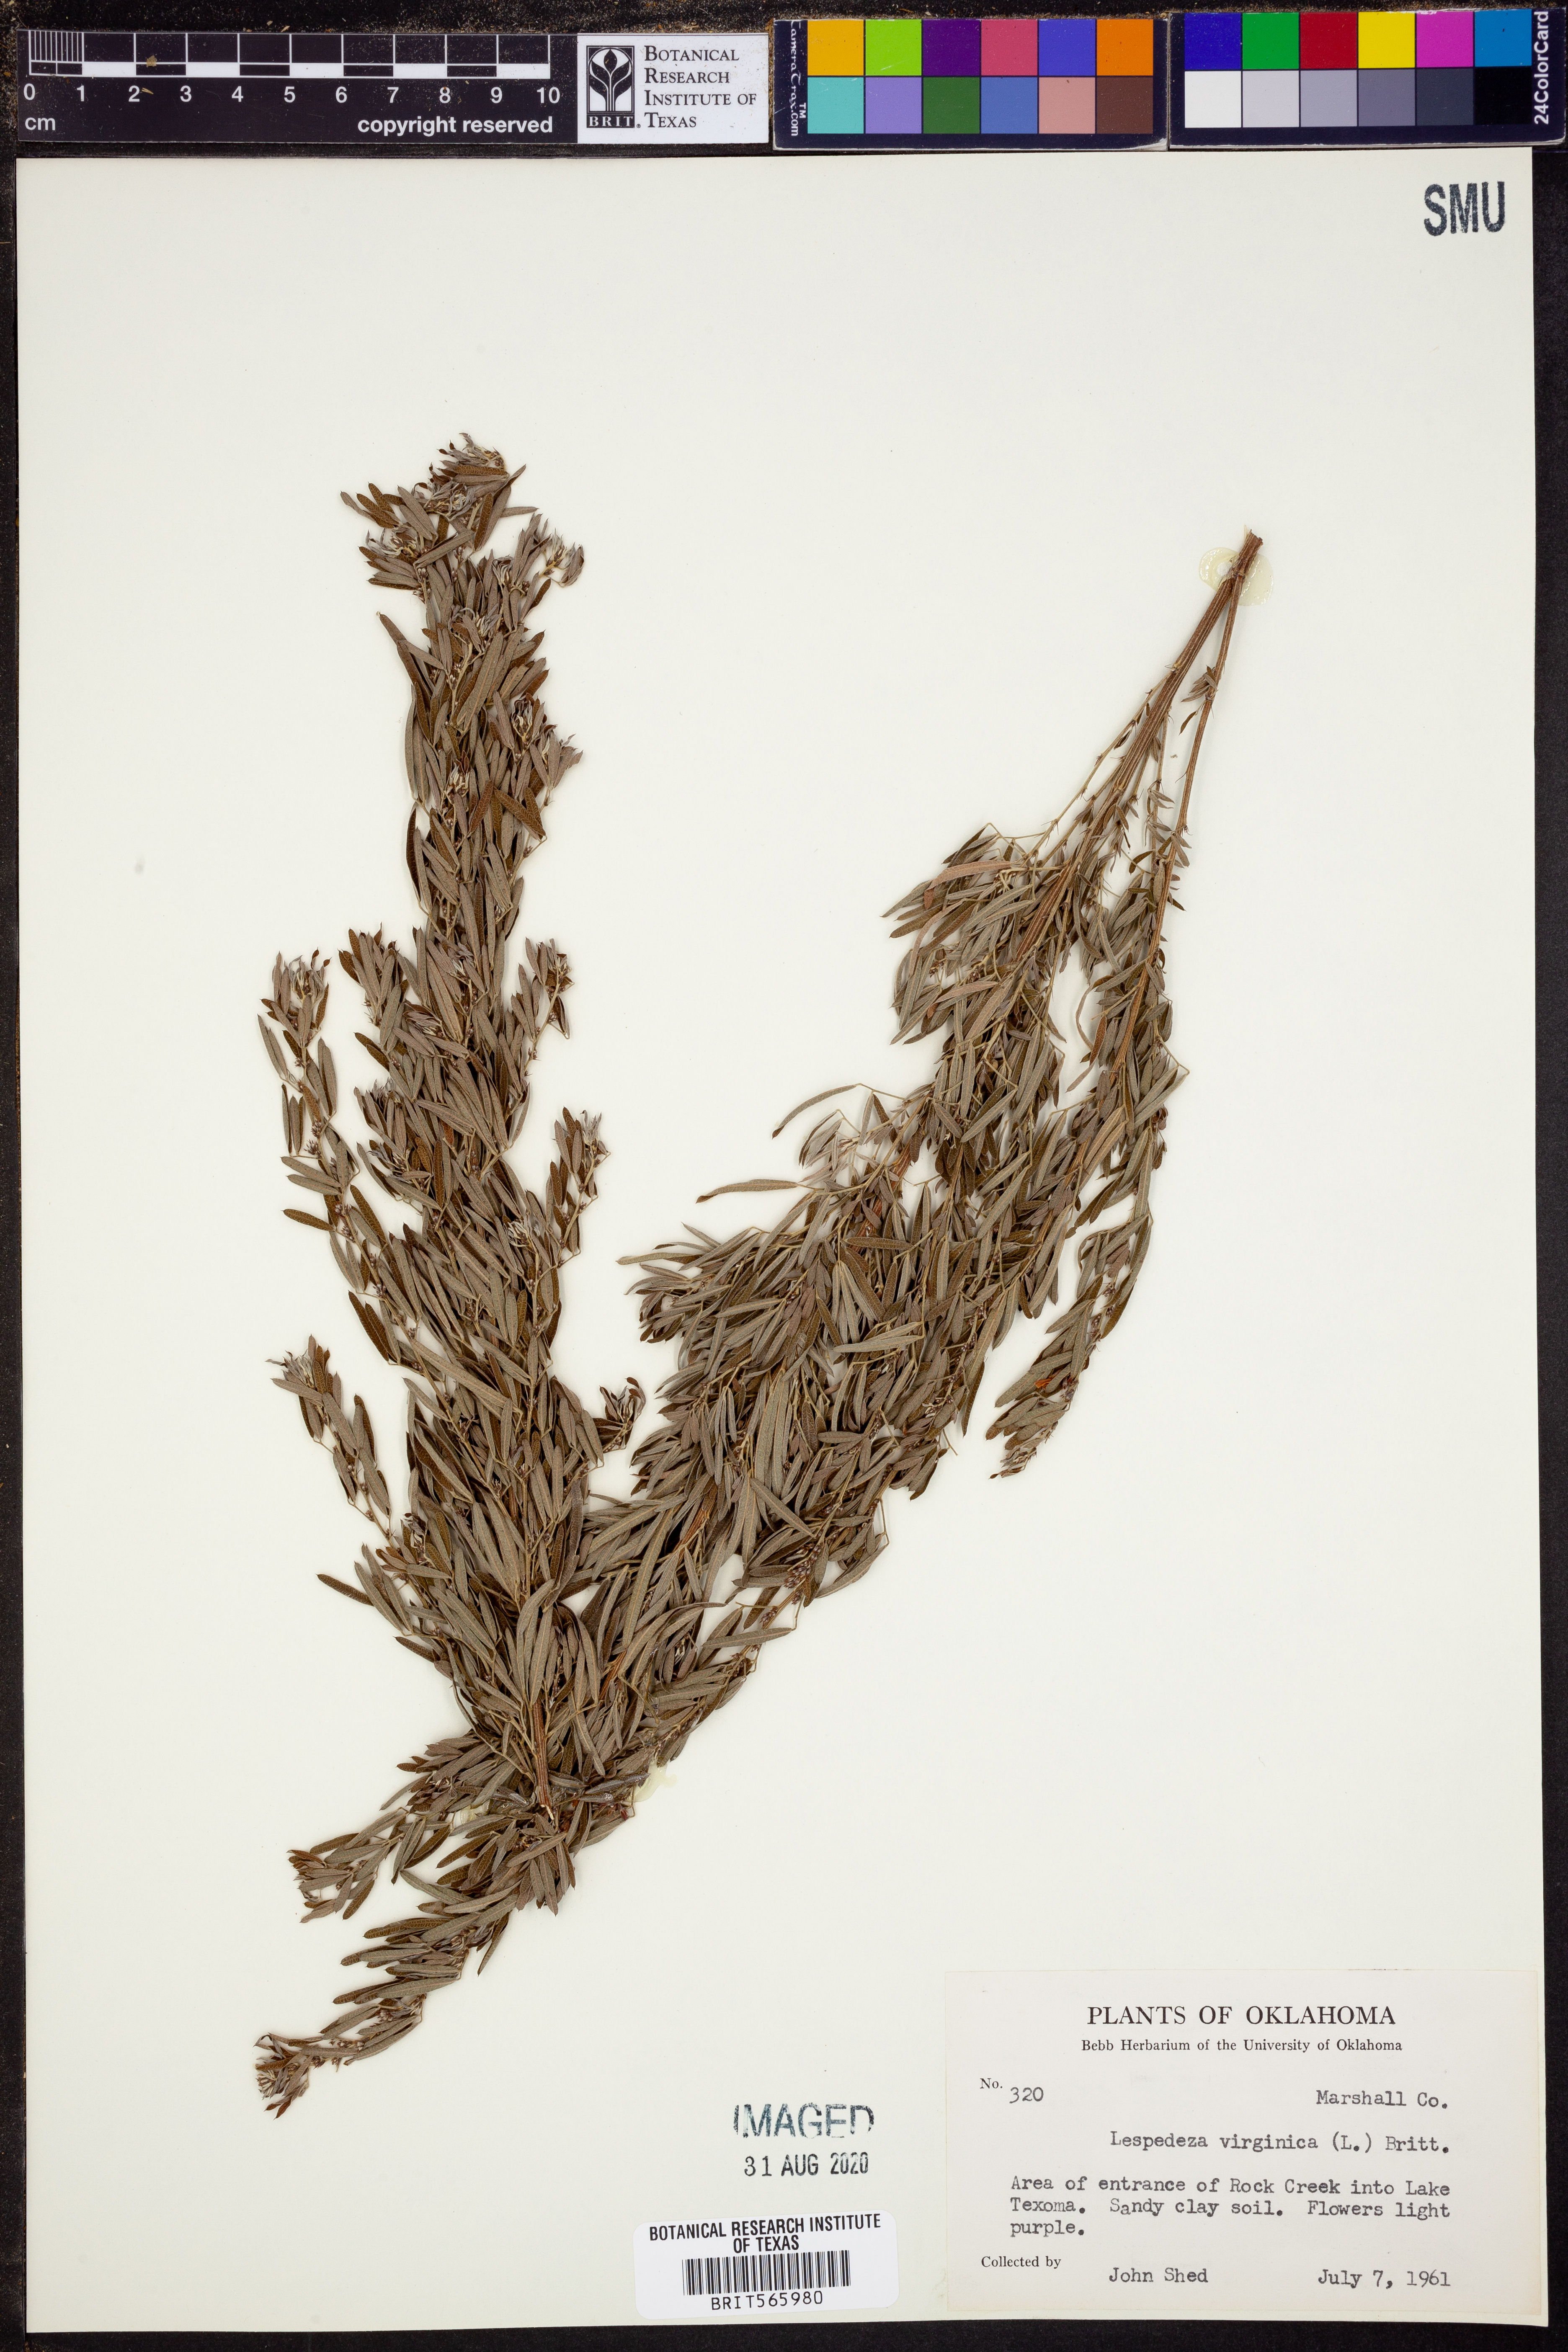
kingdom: Plantae
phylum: Tracheophyta
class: Magnoliopsida
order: Fabales
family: Fabaceae
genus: Lespedeza
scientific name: Lespedeza virginica
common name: Slender bush-clover
